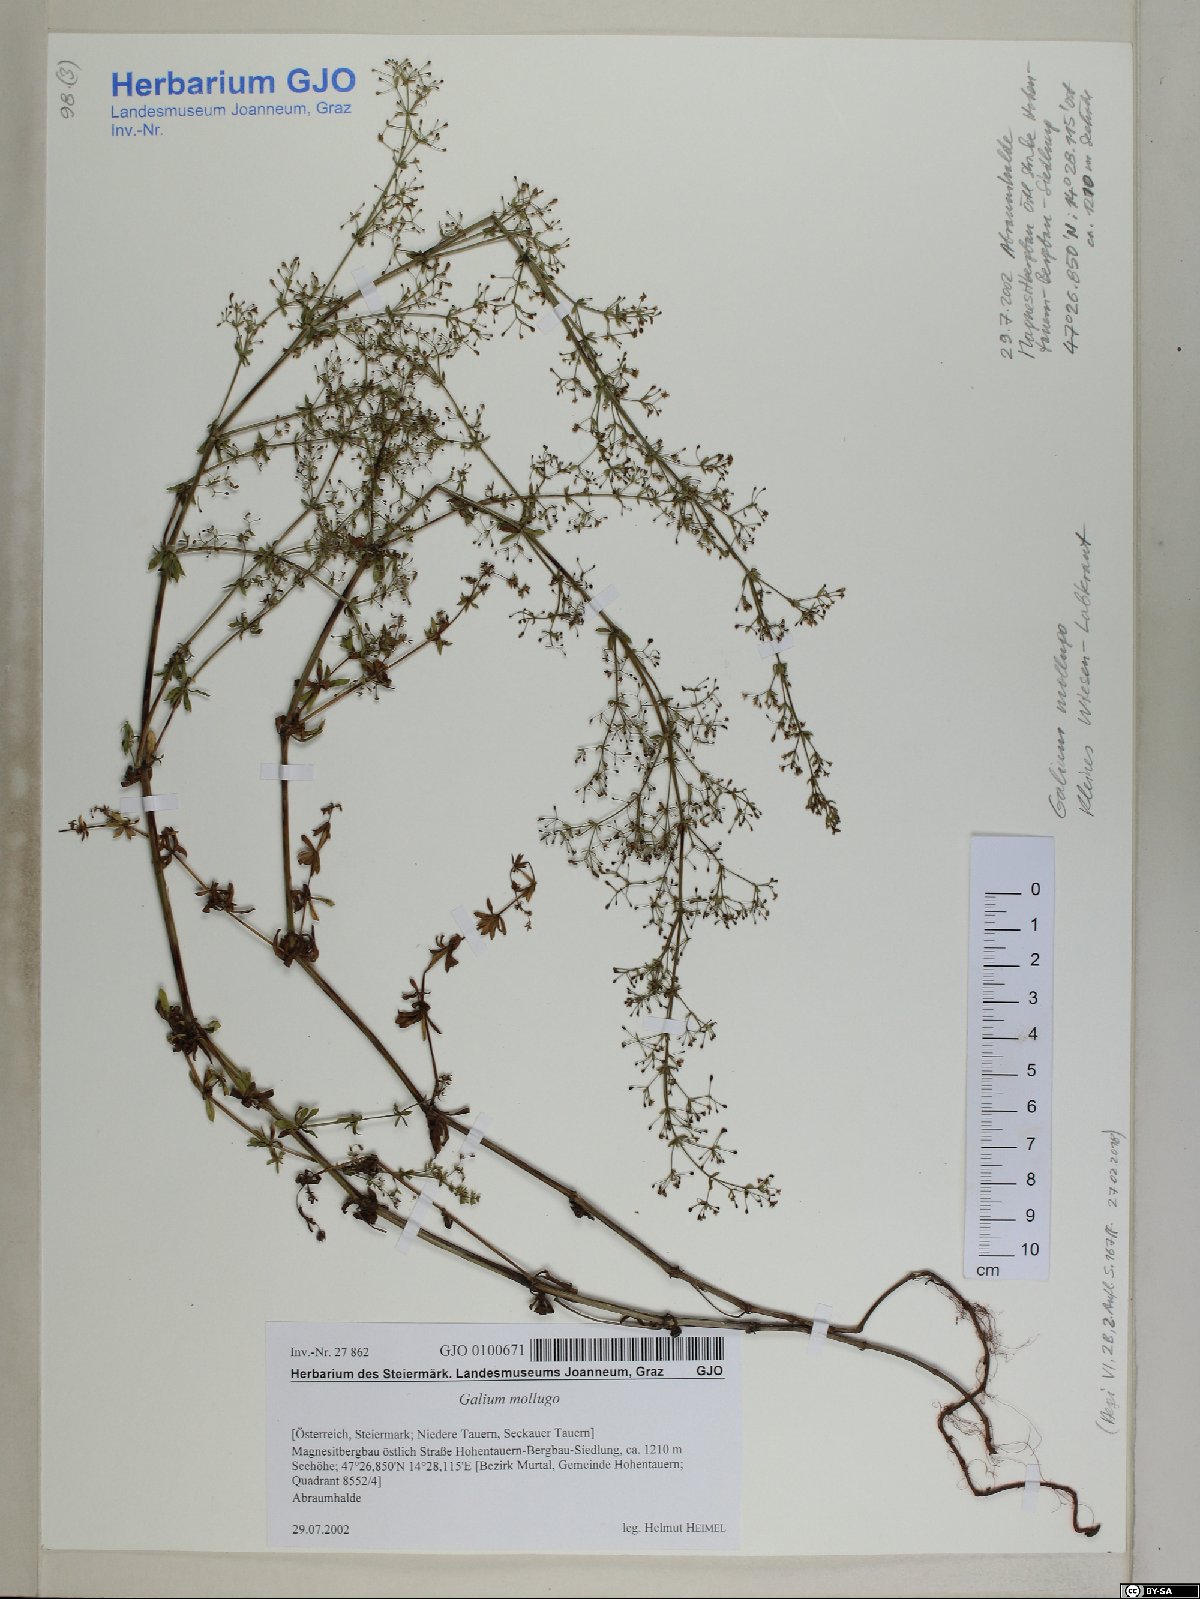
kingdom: Plantae
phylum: Tracheophyta
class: Magnoliopsida
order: Gentianales
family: Rubiaceae
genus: Galium
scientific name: Galium mollugo
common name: Hedge bedstraw
